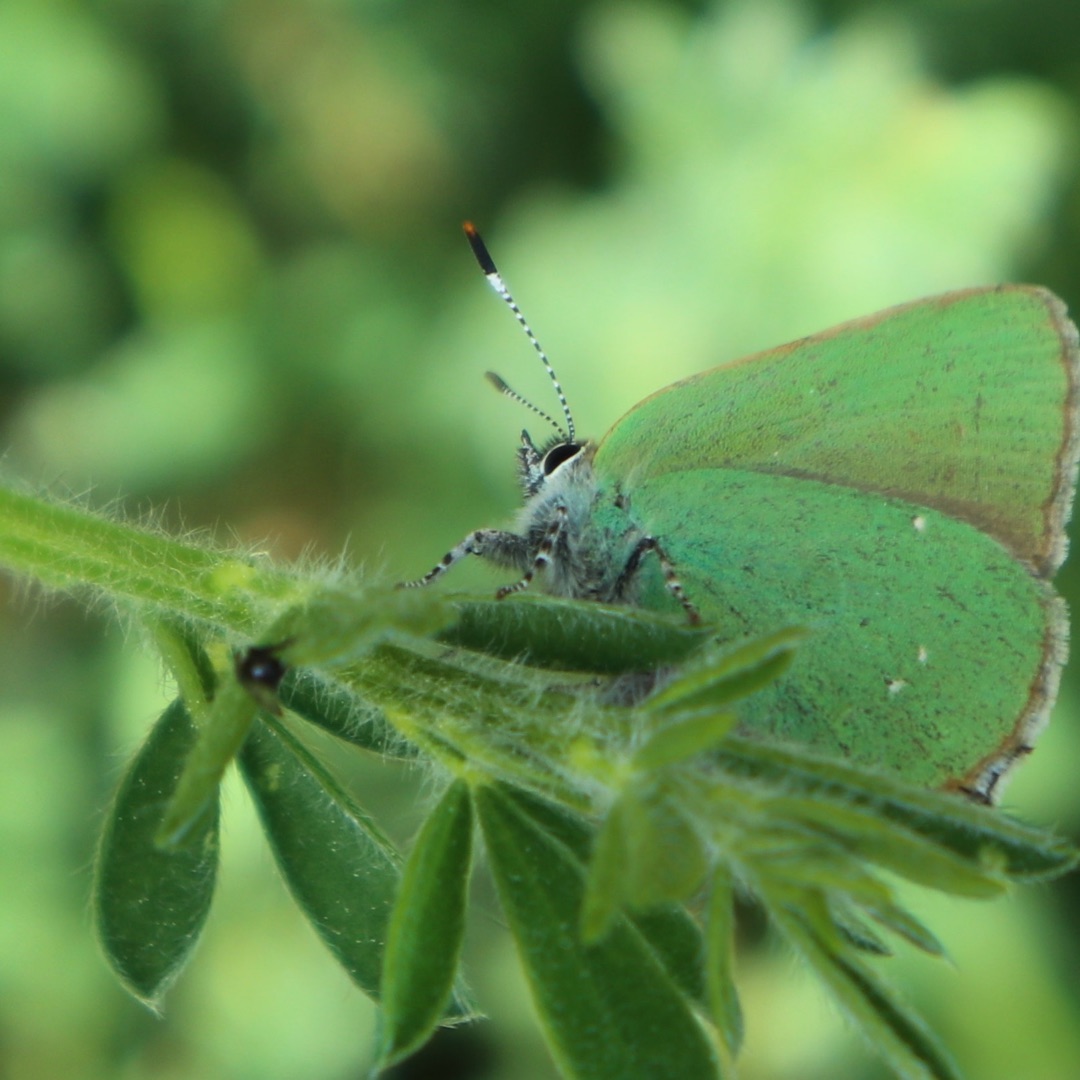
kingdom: Animalia
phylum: Arthropoda
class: Insecta
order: Lepidoptera
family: Lycaenidae
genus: Callophrys
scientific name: Callophrys rubi
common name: Grøn busksommerfugl
